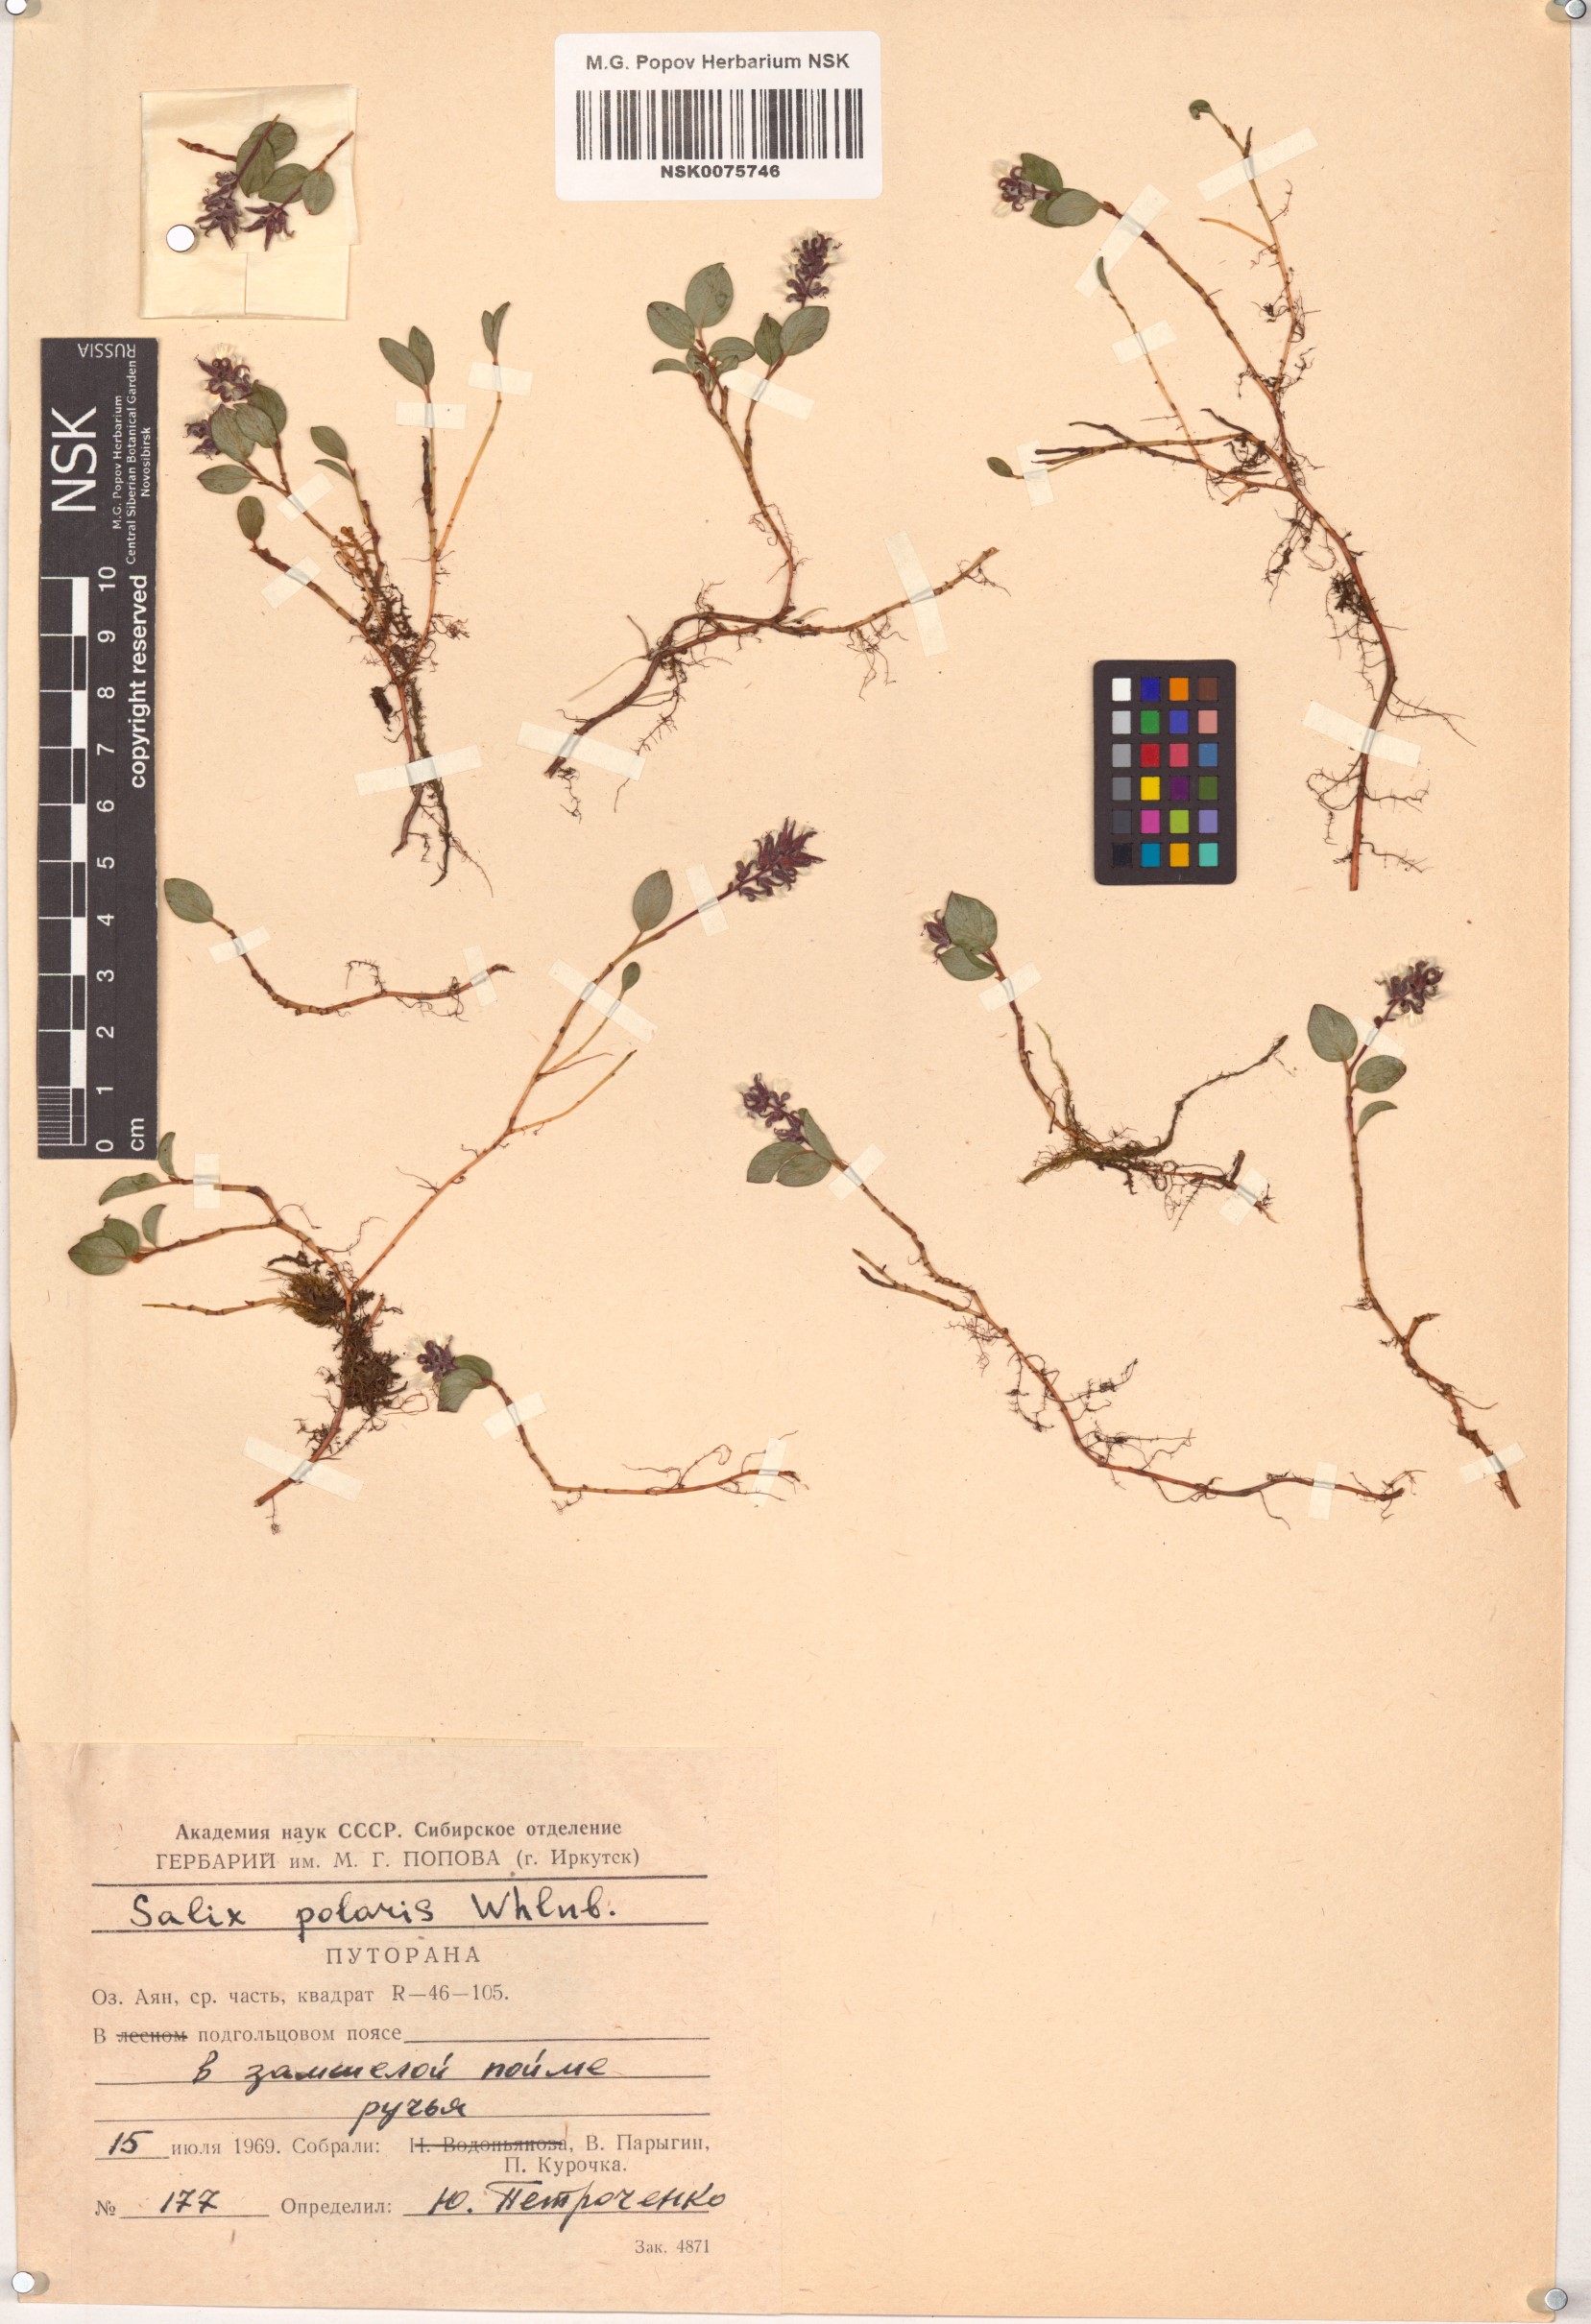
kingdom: Plantae
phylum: Tracheophyta
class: Magnoliopsida
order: Malpighiales
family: Salicaceae
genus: Salix
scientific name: Salix polaris
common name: Polar willow
